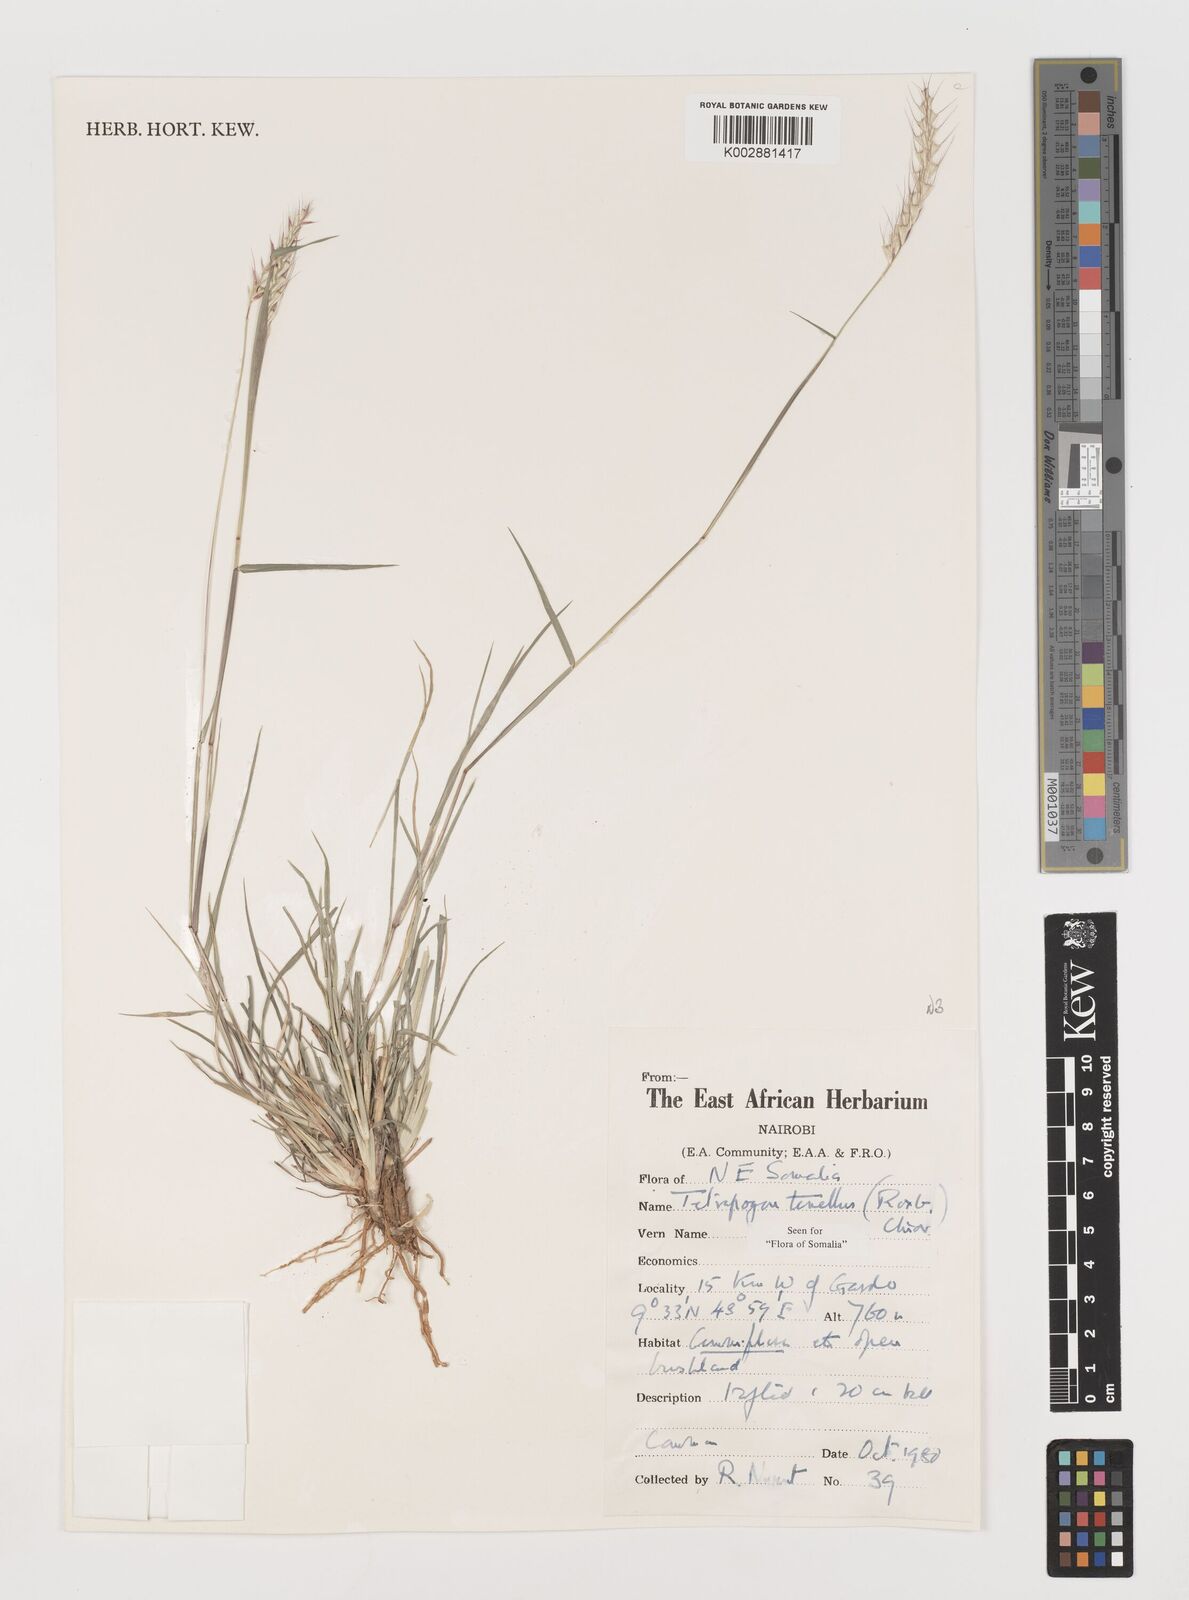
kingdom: Plantae
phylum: Tracheophyta
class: Liliopsida
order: Poales
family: Poaceae
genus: Tetrapogon
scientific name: Tetrapogon tenellus
